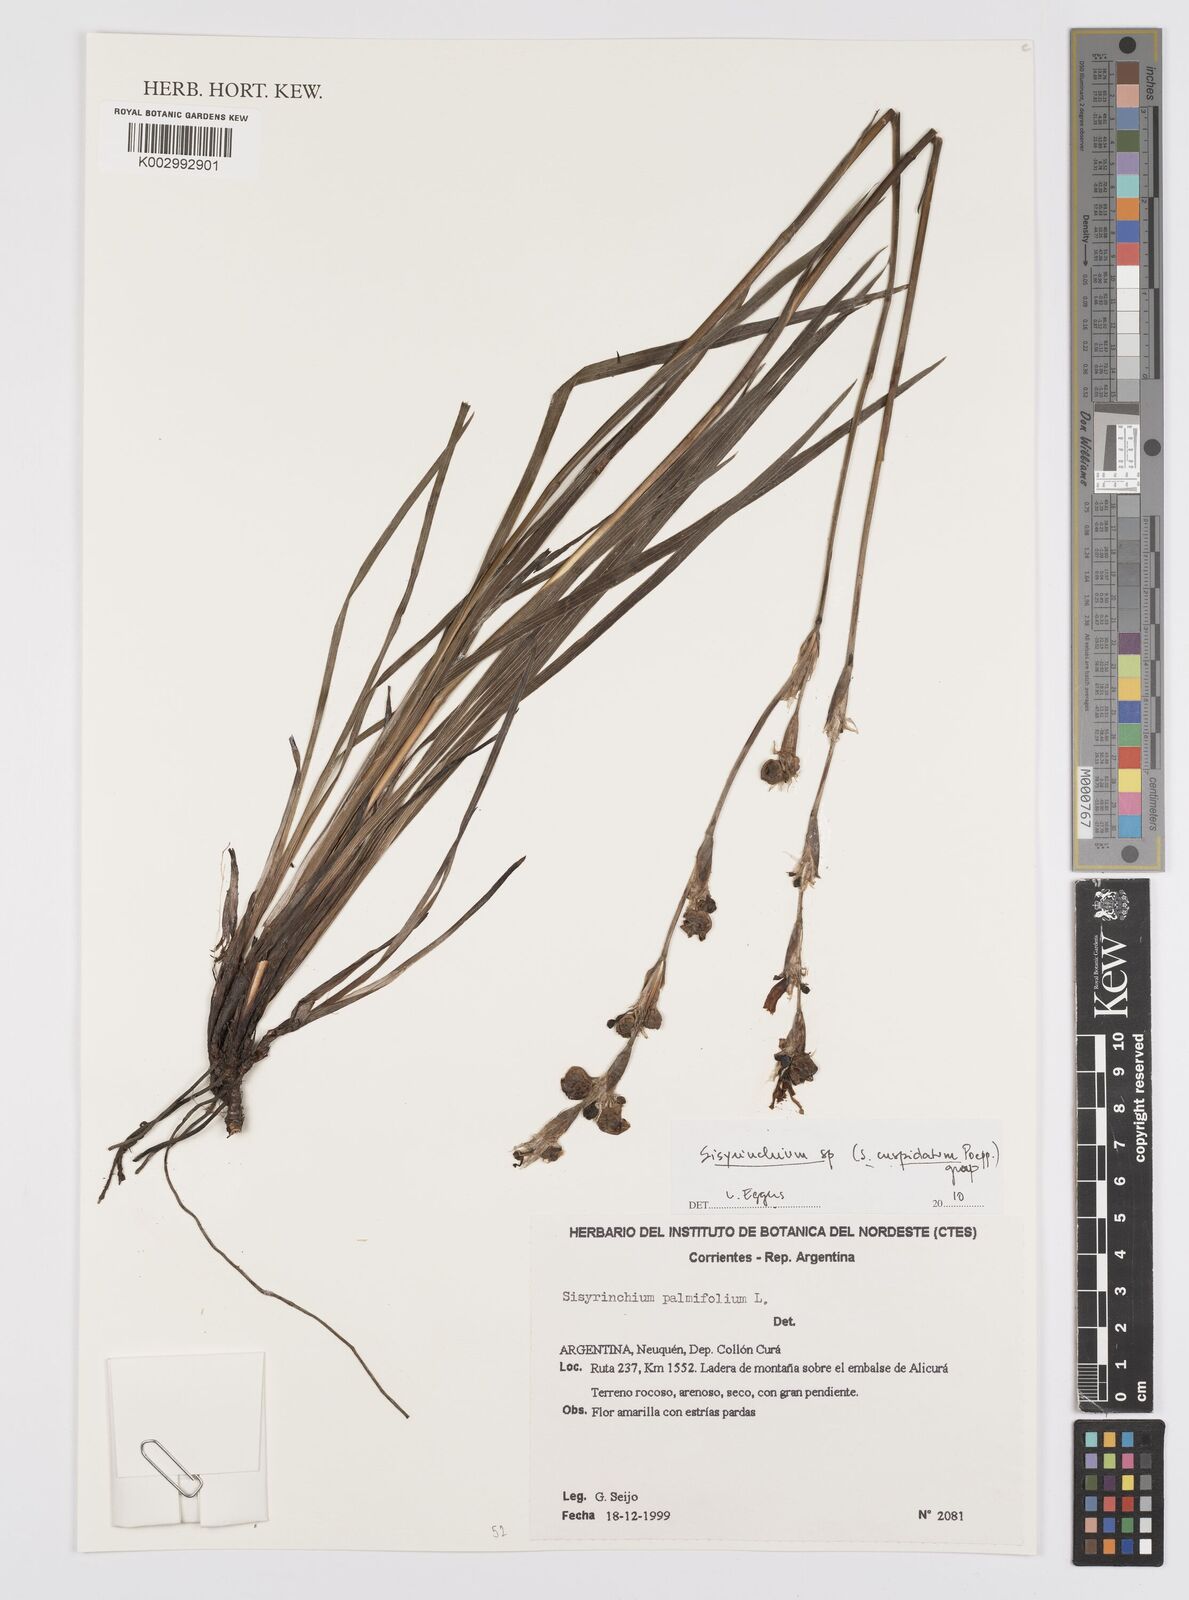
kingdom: Plantae
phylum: Tracheophyta
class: Liliopsida
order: Asparagales
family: Iridaceae
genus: Sisyrinchium
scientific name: Sisyrinchium cuspidatum
